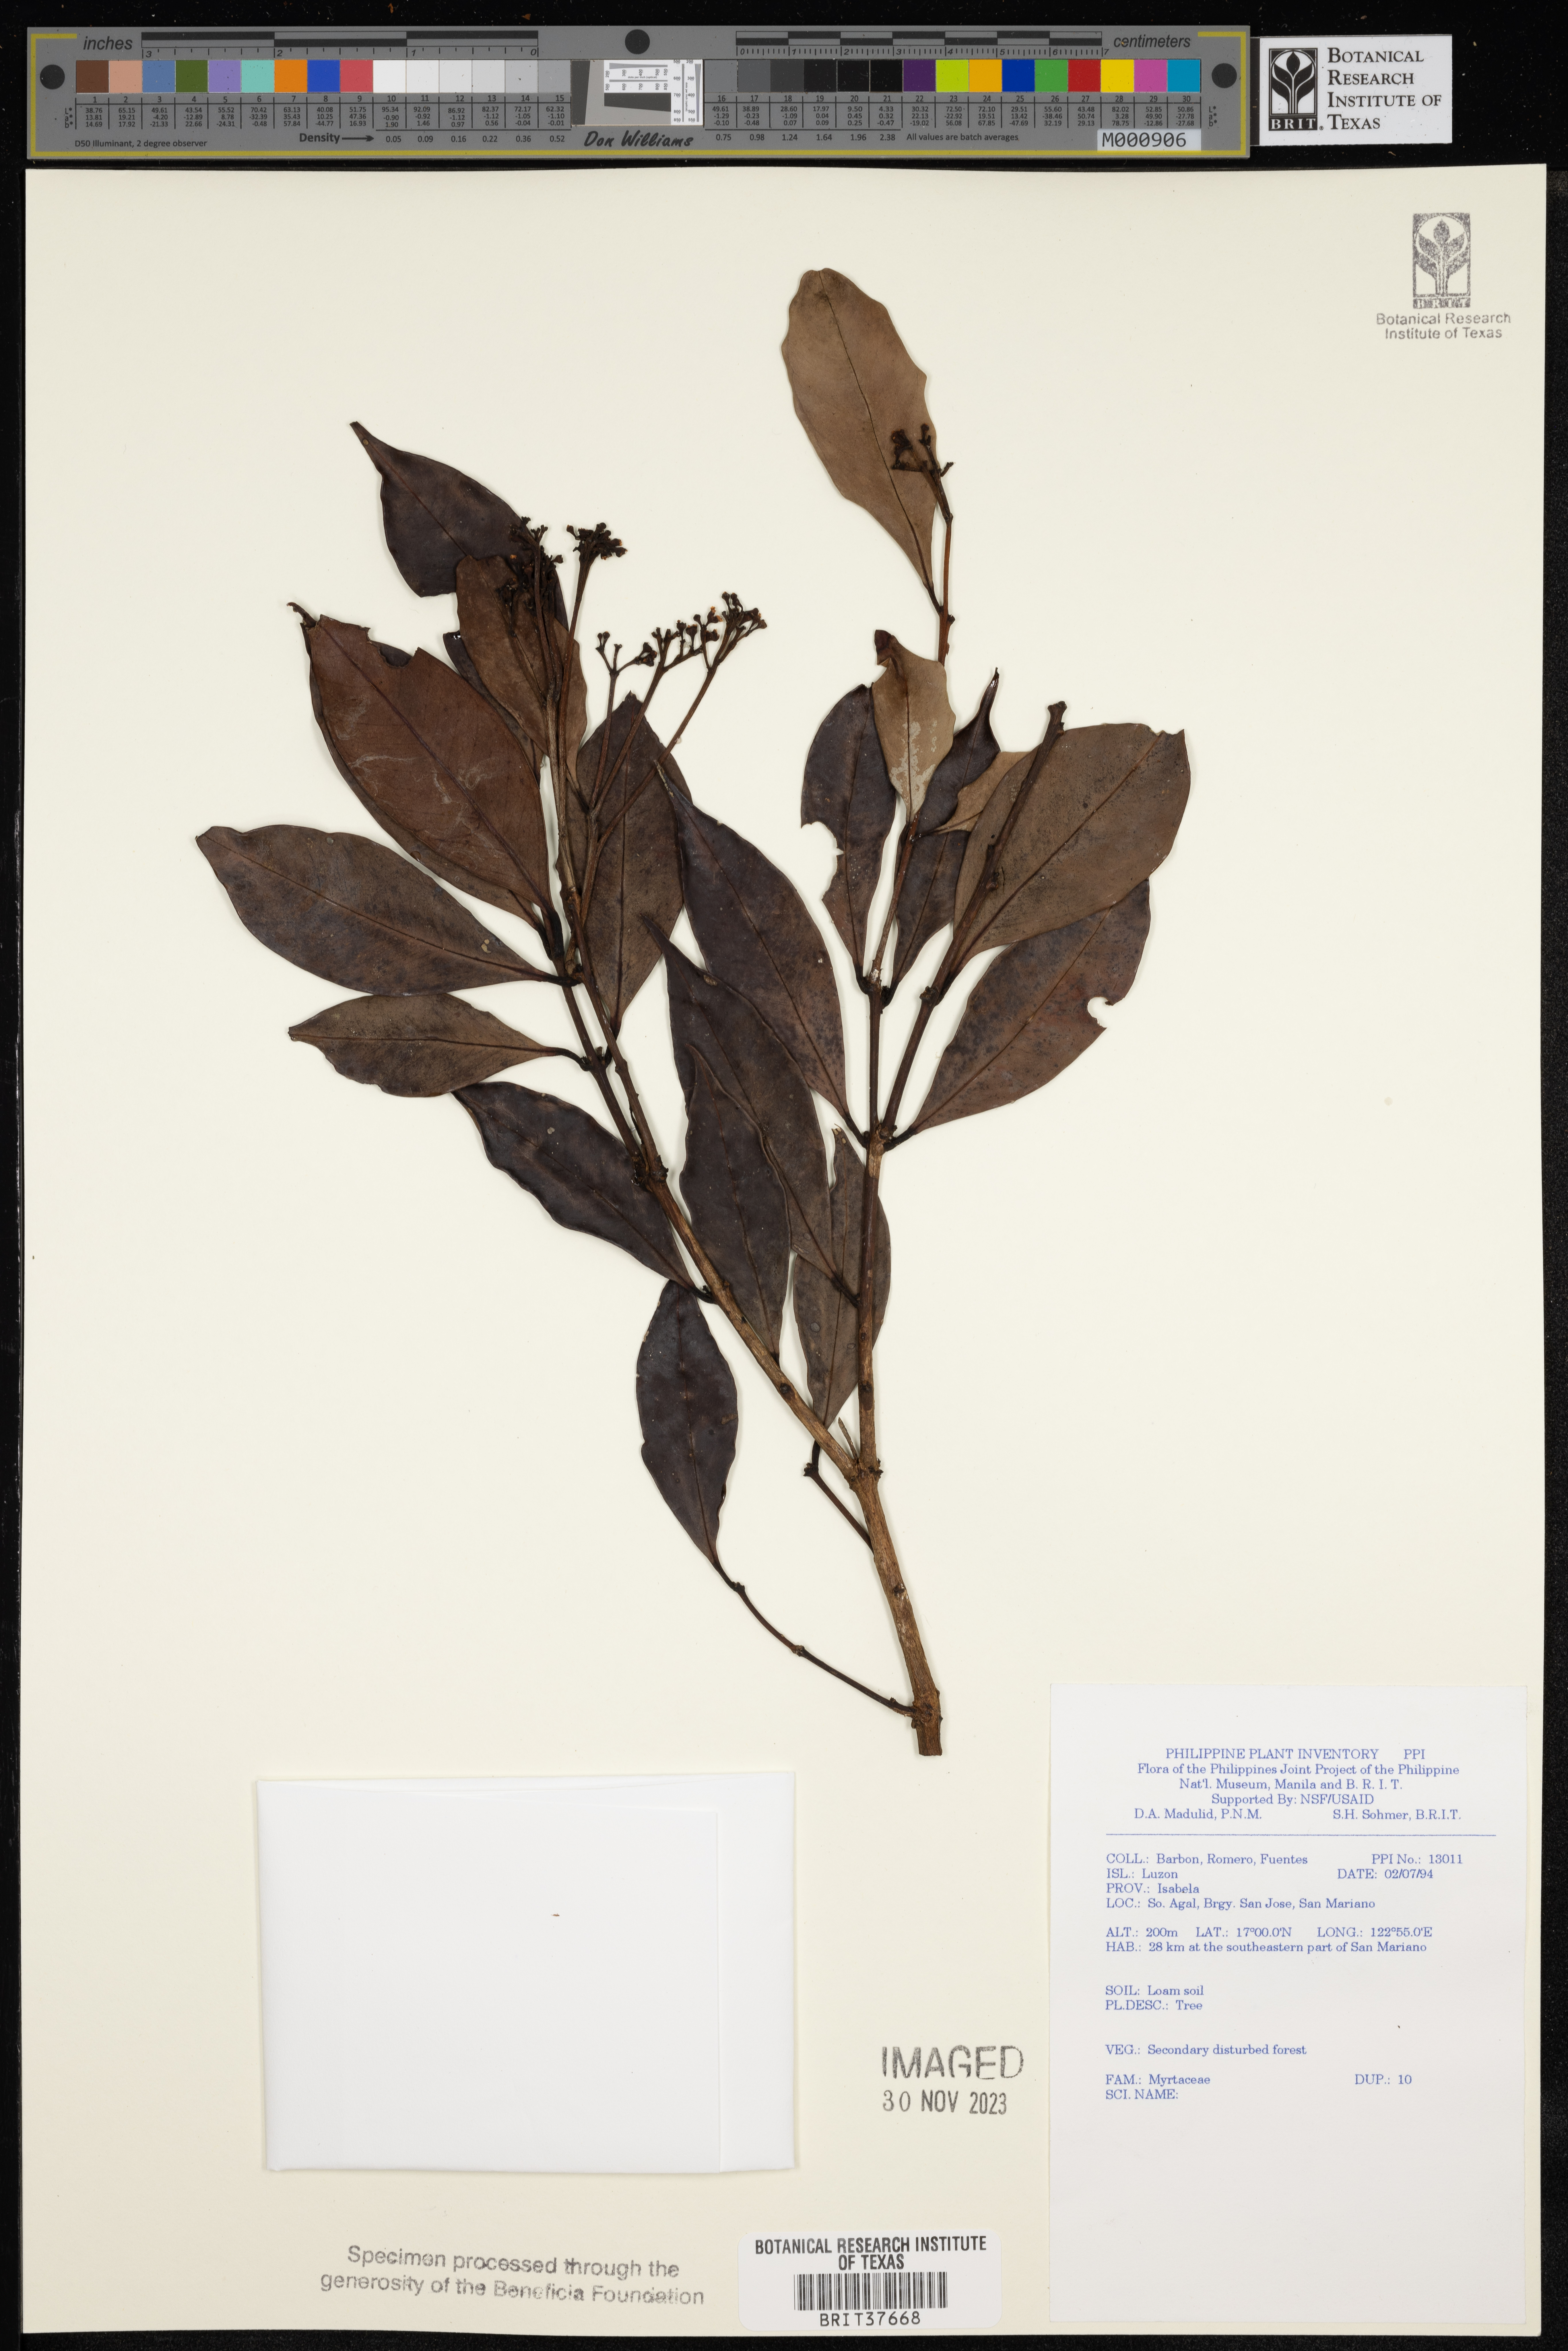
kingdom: Plantae
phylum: Tracheophyta
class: Magnoliopsida
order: Myrtales
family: Myrtaceae
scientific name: Myrtaceae
